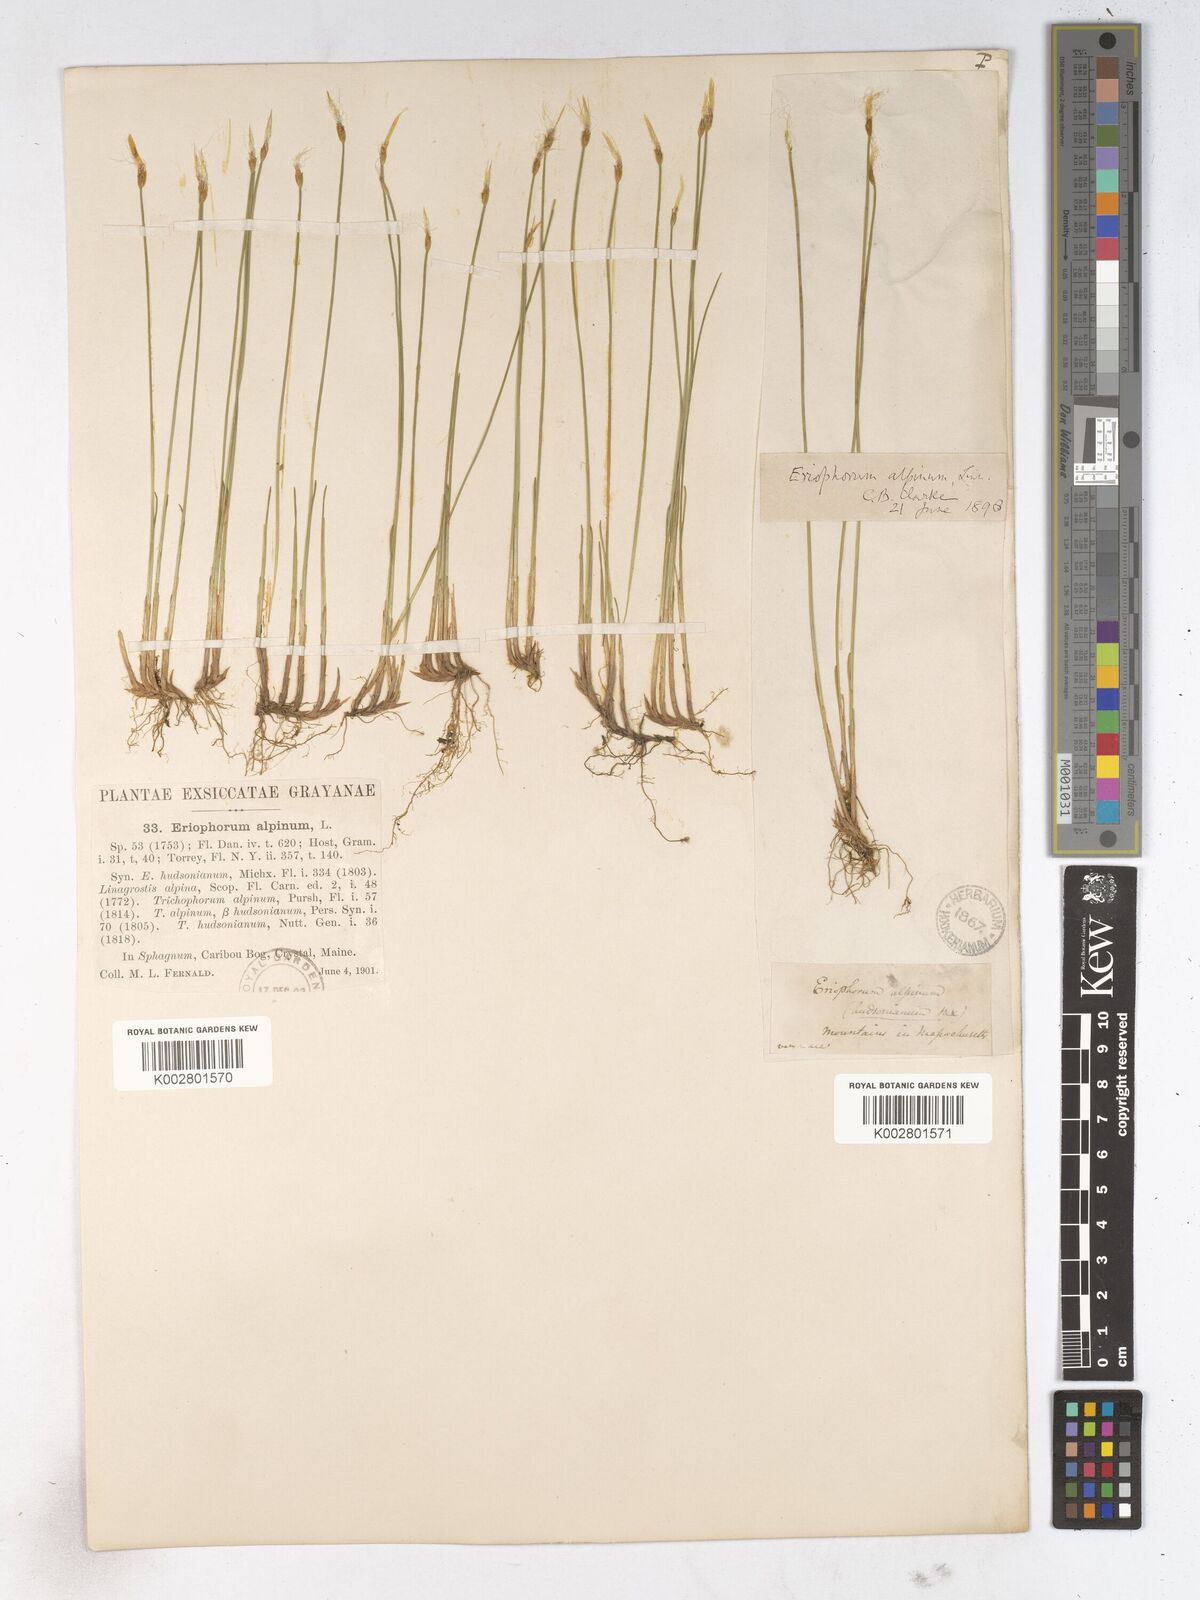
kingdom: Plantae
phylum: Tracheophyta
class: Liliopsida
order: Poales
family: Cyperaceae
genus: Trichophorum
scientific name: Trichophorum alpinum
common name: Alpine bulrush
